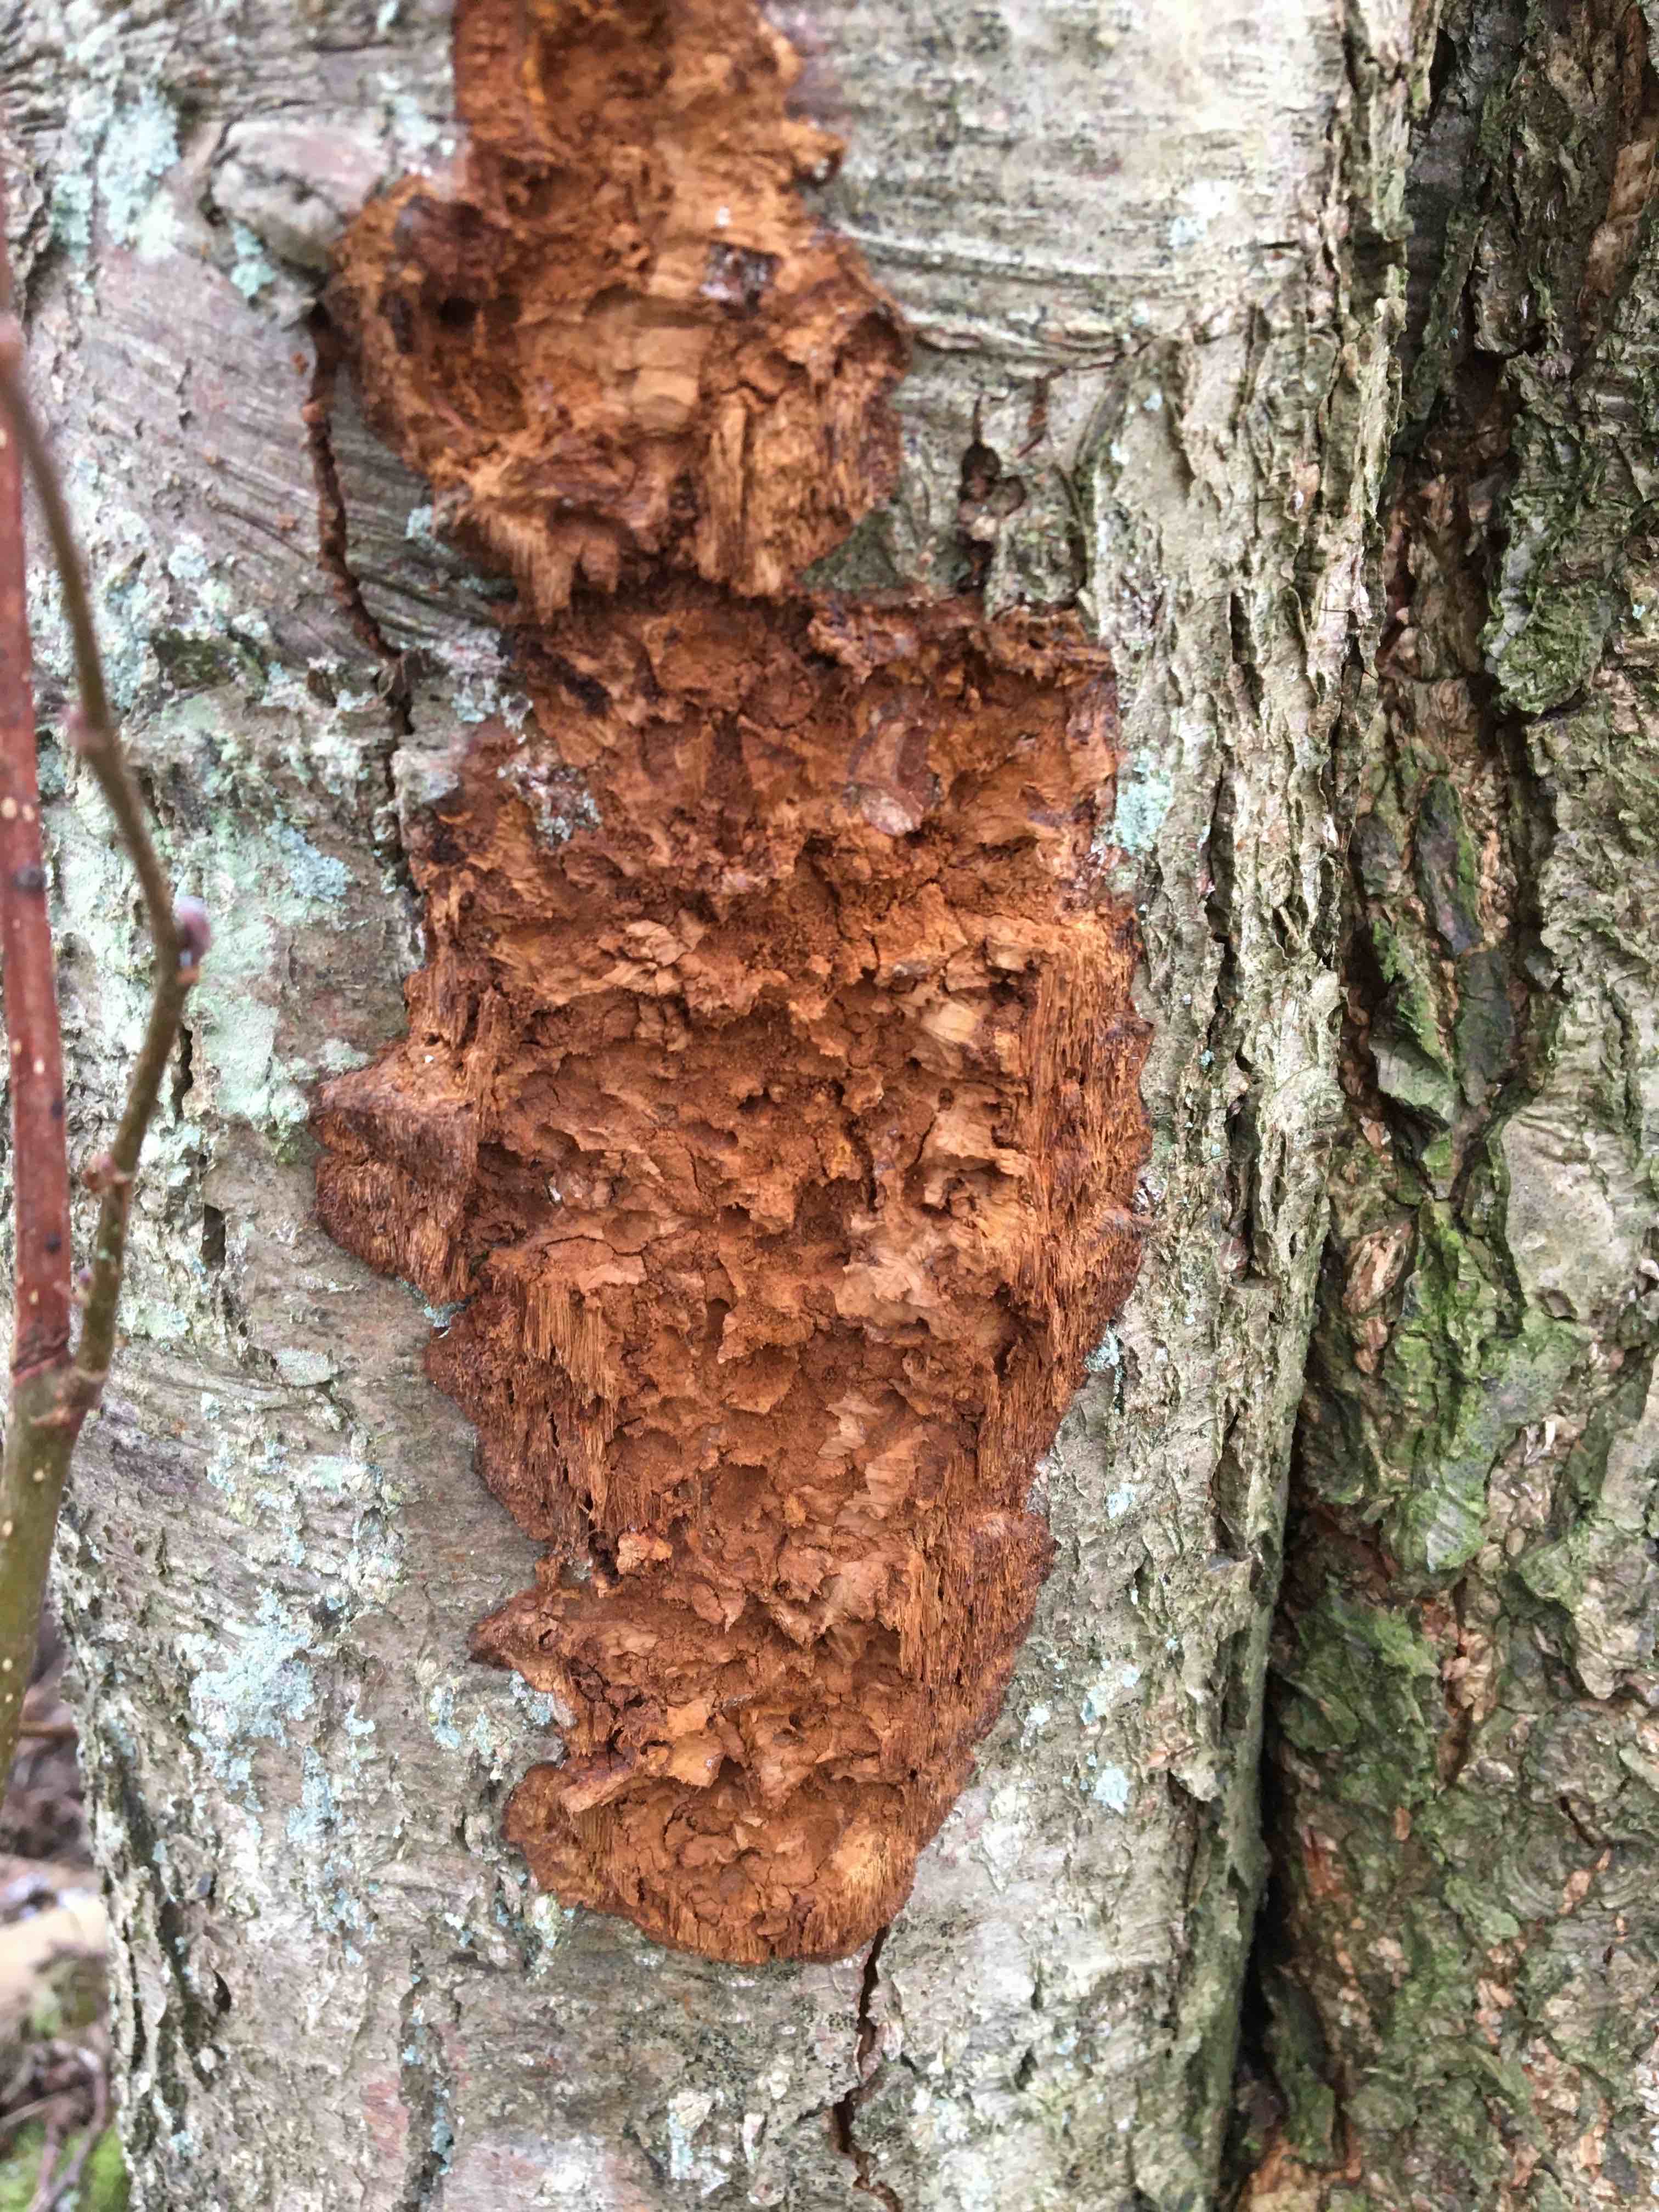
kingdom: Fungi
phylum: Basidiomycota
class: Agaricomycetes
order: Hymenochaetales
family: Hymenochaetaceae
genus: Xanthoporia
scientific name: Xanthoporia radiata
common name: elle-spejlporesvamp
